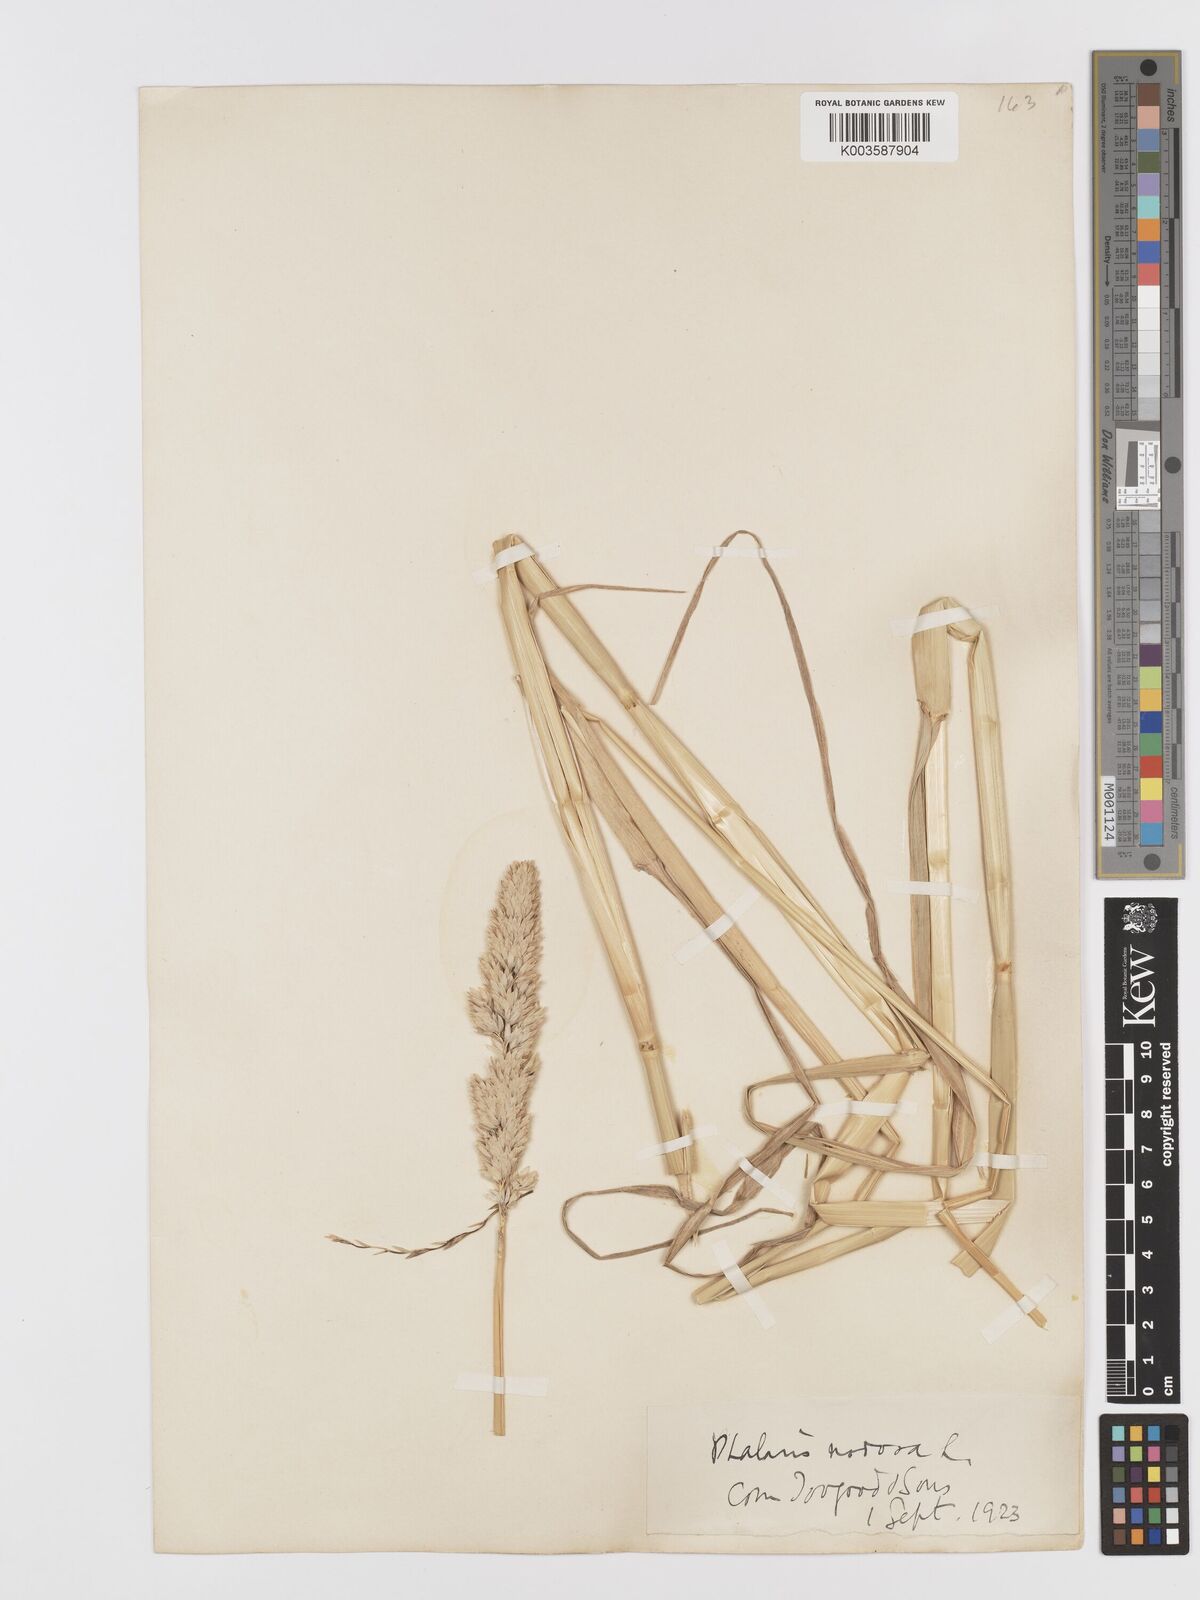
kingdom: Plantae
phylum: Tracheophyta
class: Liliopsida
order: Poales
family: Poaceae
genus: Phalaris
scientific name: Phalaris
